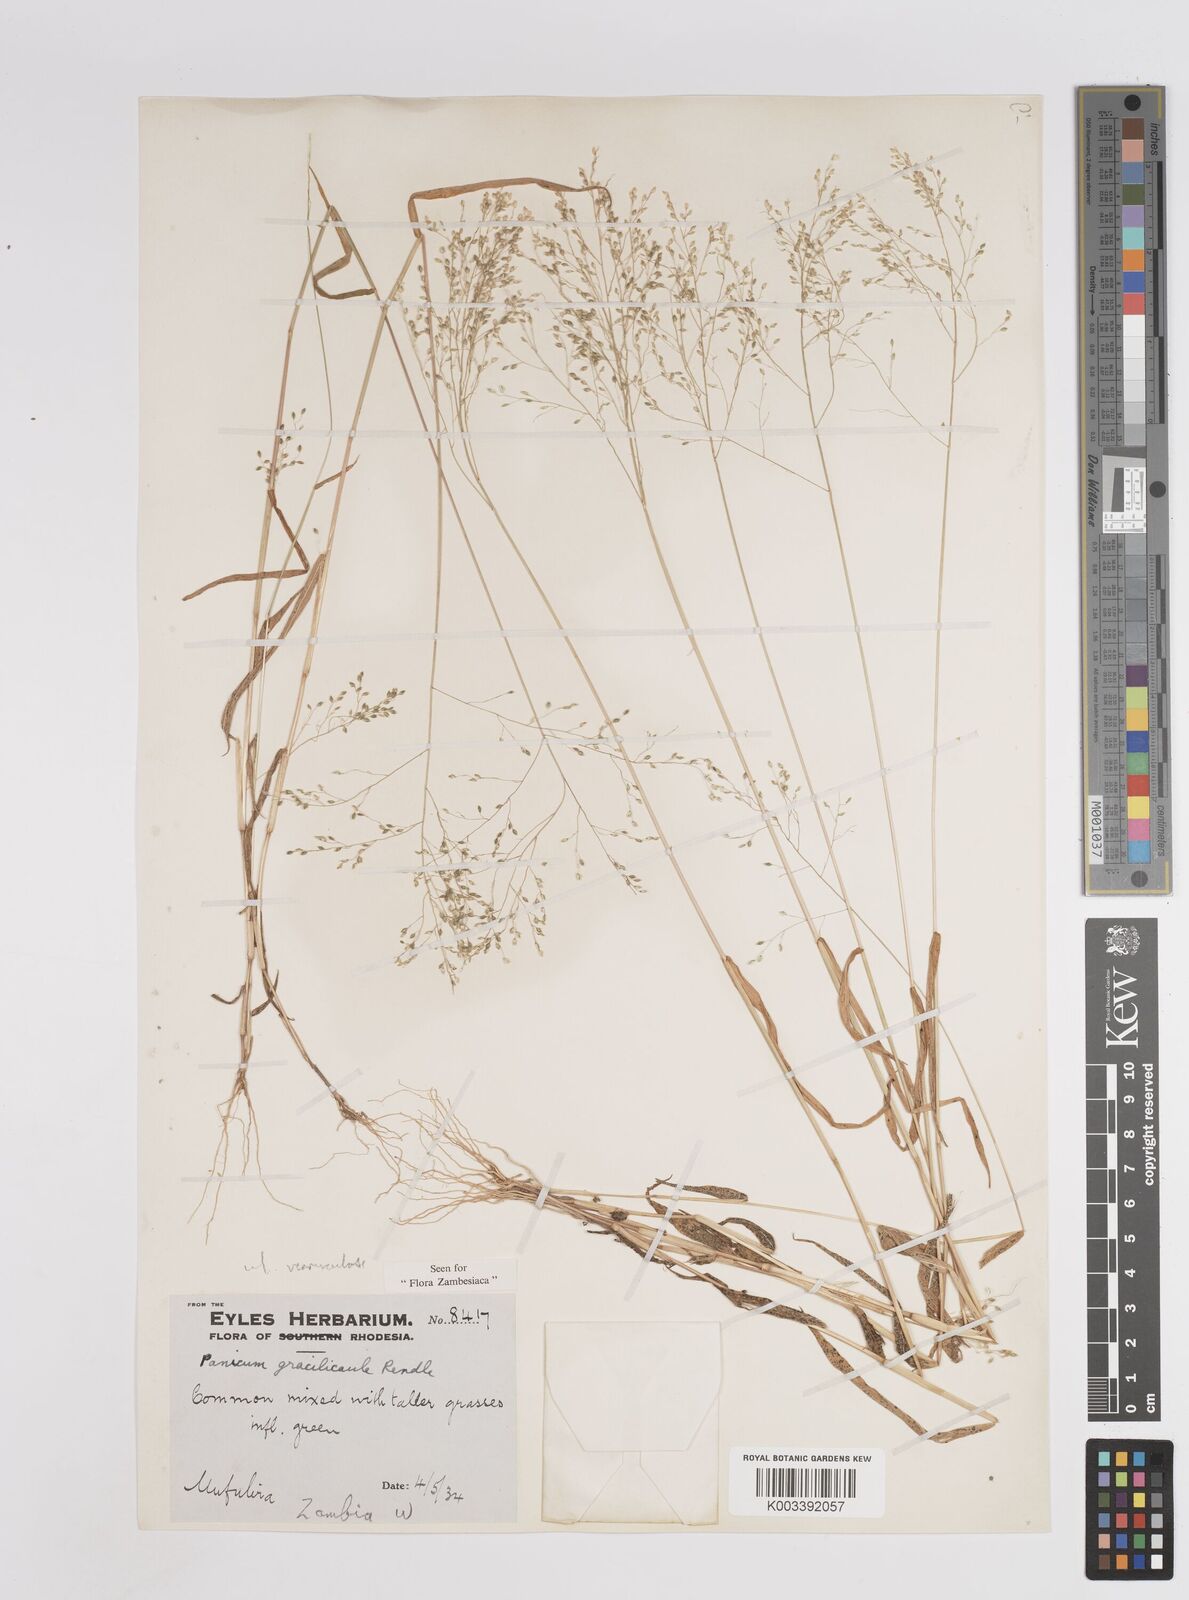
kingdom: Plantae
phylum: Tracheophyta
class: Liliopsida
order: Poales
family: Poaceae
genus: Trichanthecium
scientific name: Trichanthecium gracilicaule
